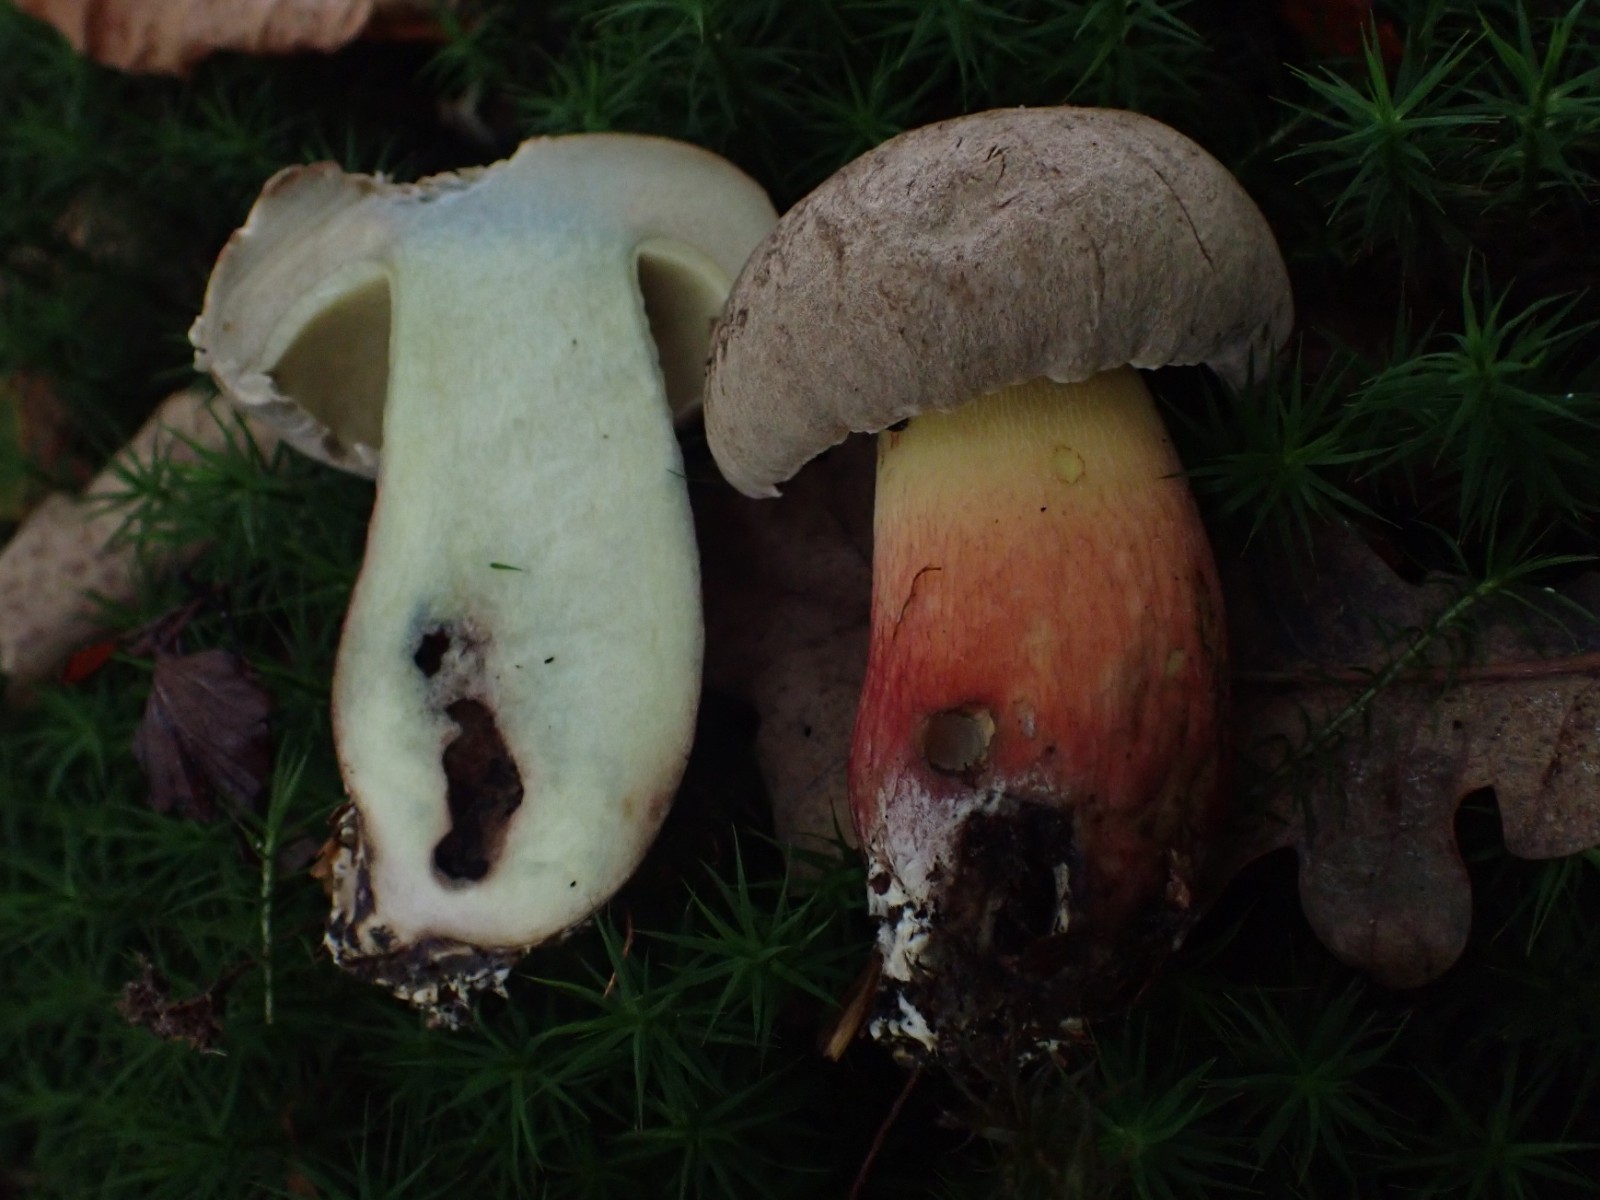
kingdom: Fungi
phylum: Basidiomycota
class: Agaricomycetes
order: Boletales
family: Boletaceae
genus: Caloboletus
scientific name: Caloboletus calopus
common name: skønfodet rørhat
